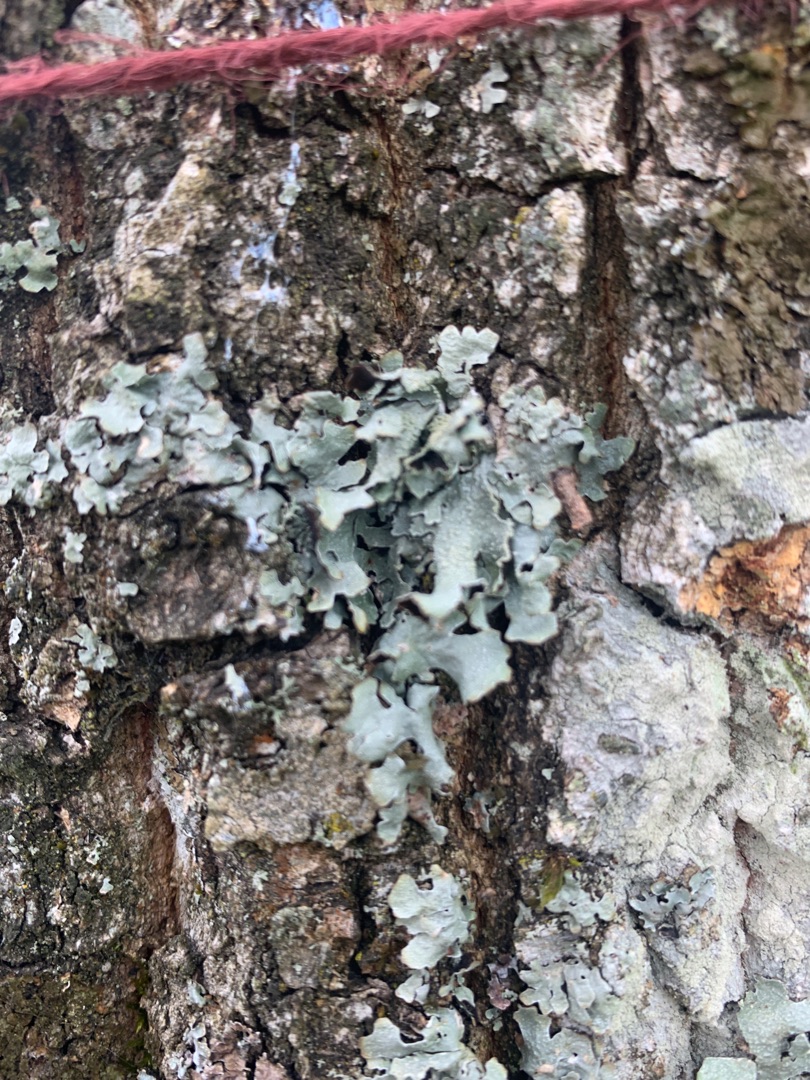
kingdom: Fungi
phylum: Ascomycota
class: Lecanoromycetes
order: Lecanorales
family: Parmeliaceae
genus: Parmelia
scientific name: Parmelia sulcata
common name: Rynket skållav
